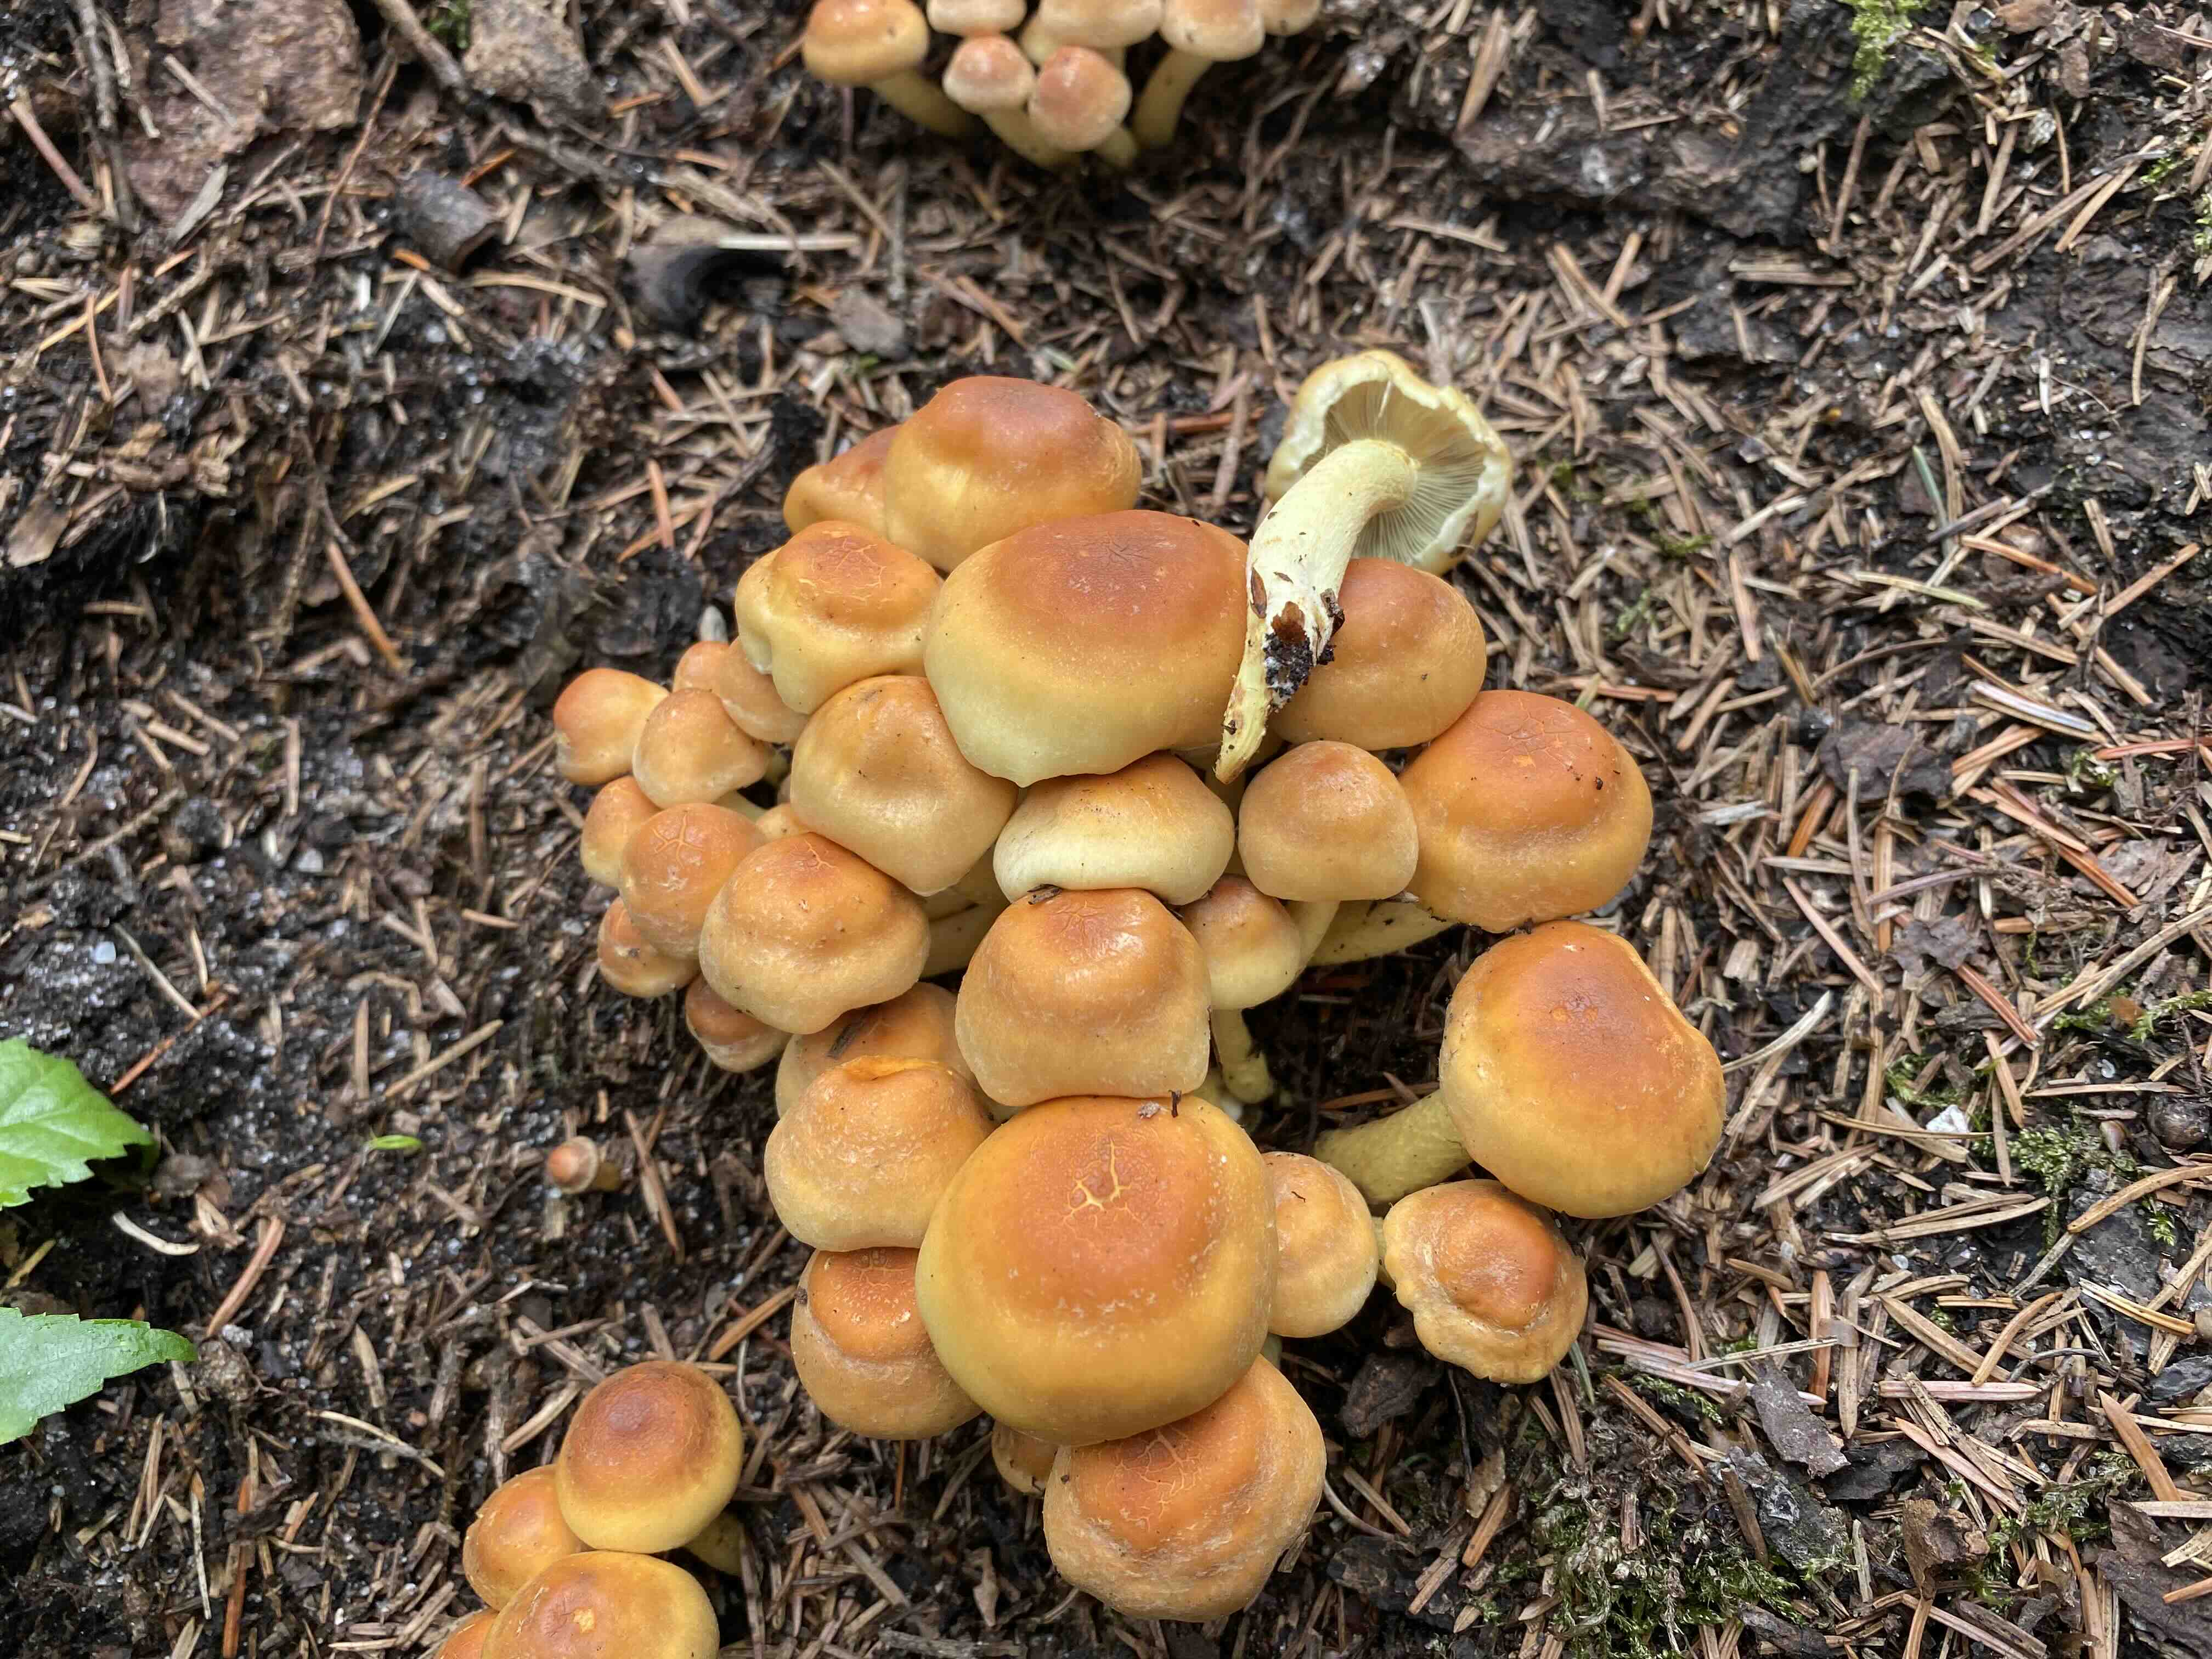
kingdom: Fungi
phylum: Basidiomycota
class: Agaricomycetes
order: Agaricales
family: Strophariaceae
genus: Hypholoma
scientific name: Hypholoma fasciculare
